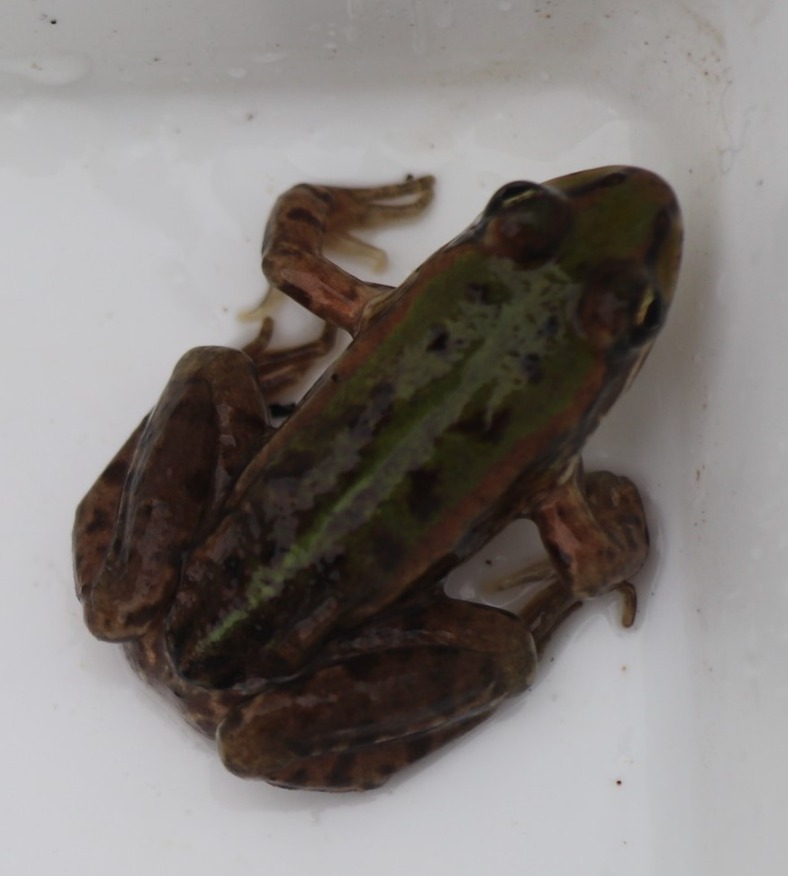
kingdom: Animalia
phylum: Chordata
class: Amphibia
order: Anura
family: Ranidae
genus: Pelophylax
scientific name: Pelophylax lessonae
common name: Grøn frø
